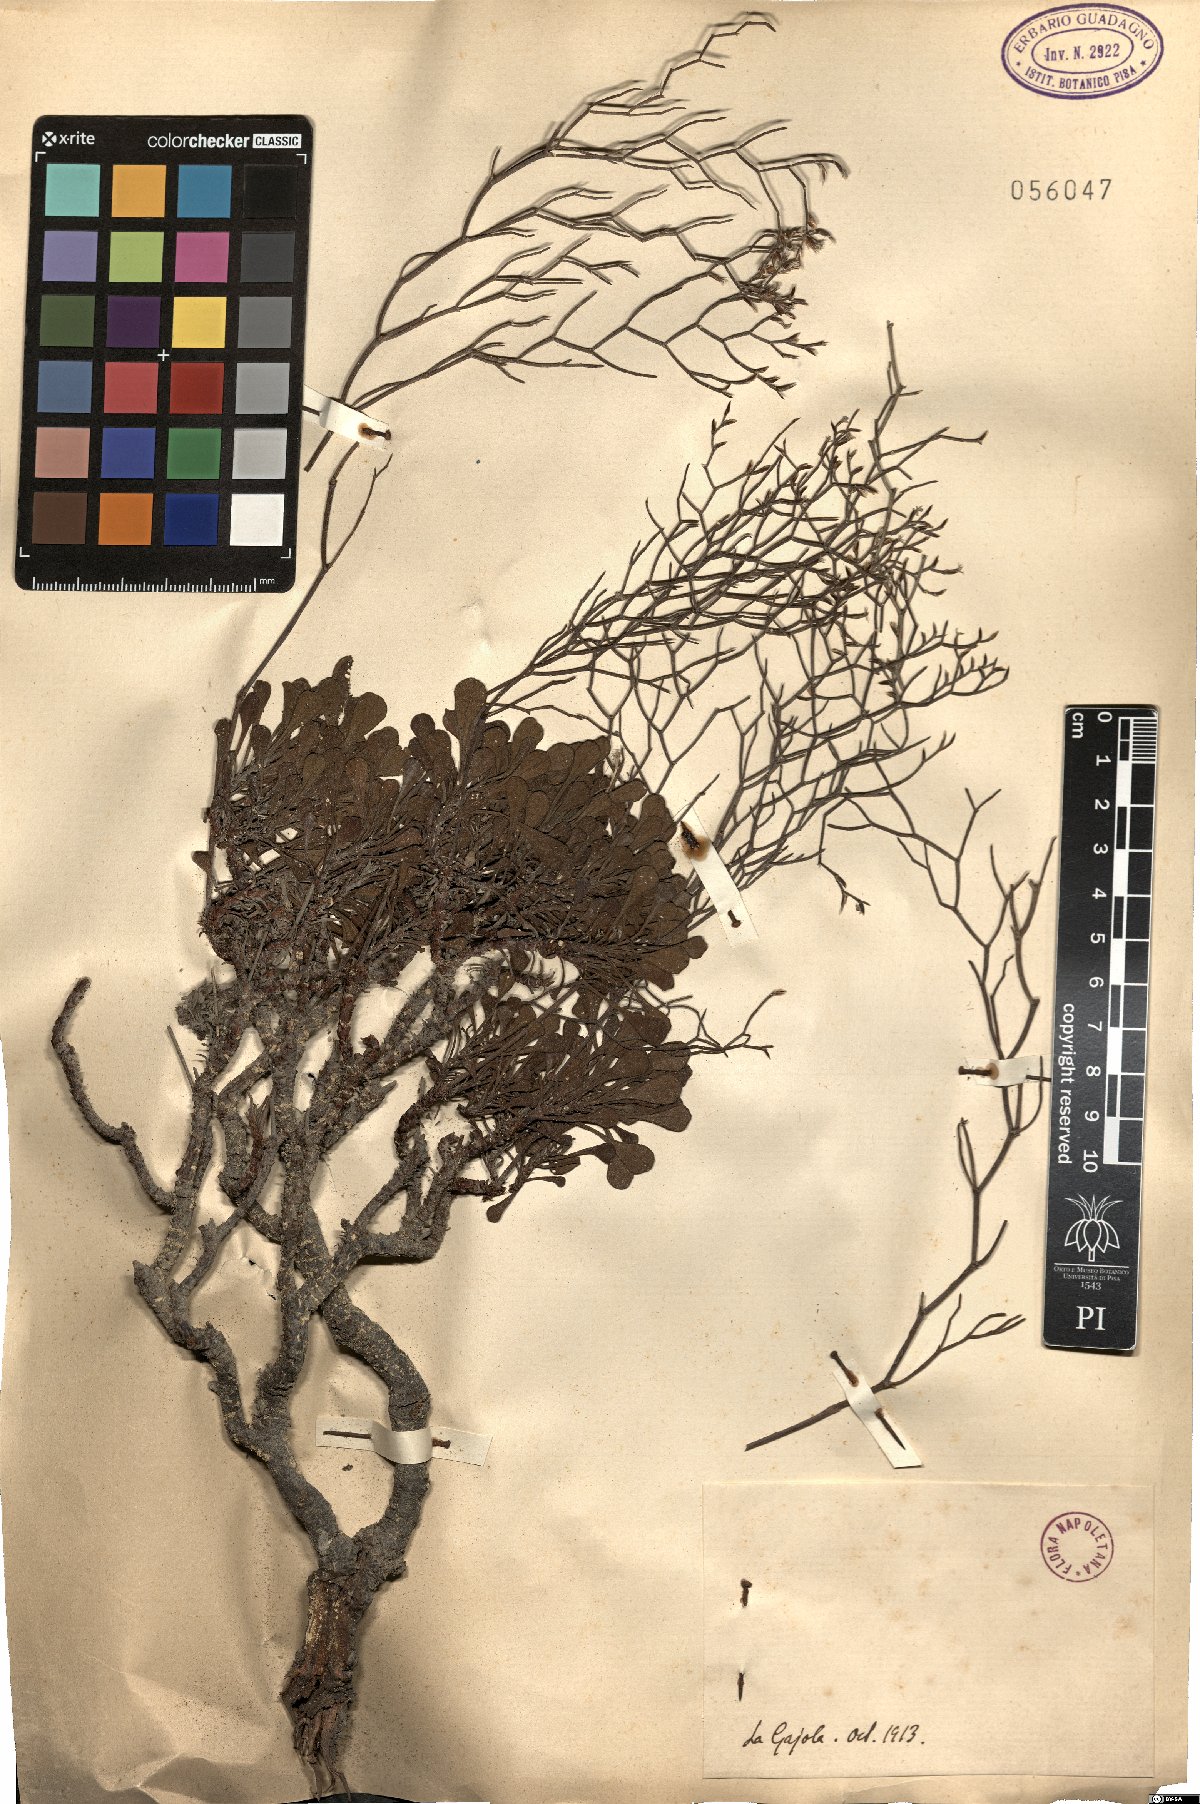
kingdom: Plantae
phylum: Tracheophyta
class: Magnoliopsida
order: Caryophyllales
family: Plumbaginaceae
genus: Armeria
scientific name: Armeria
